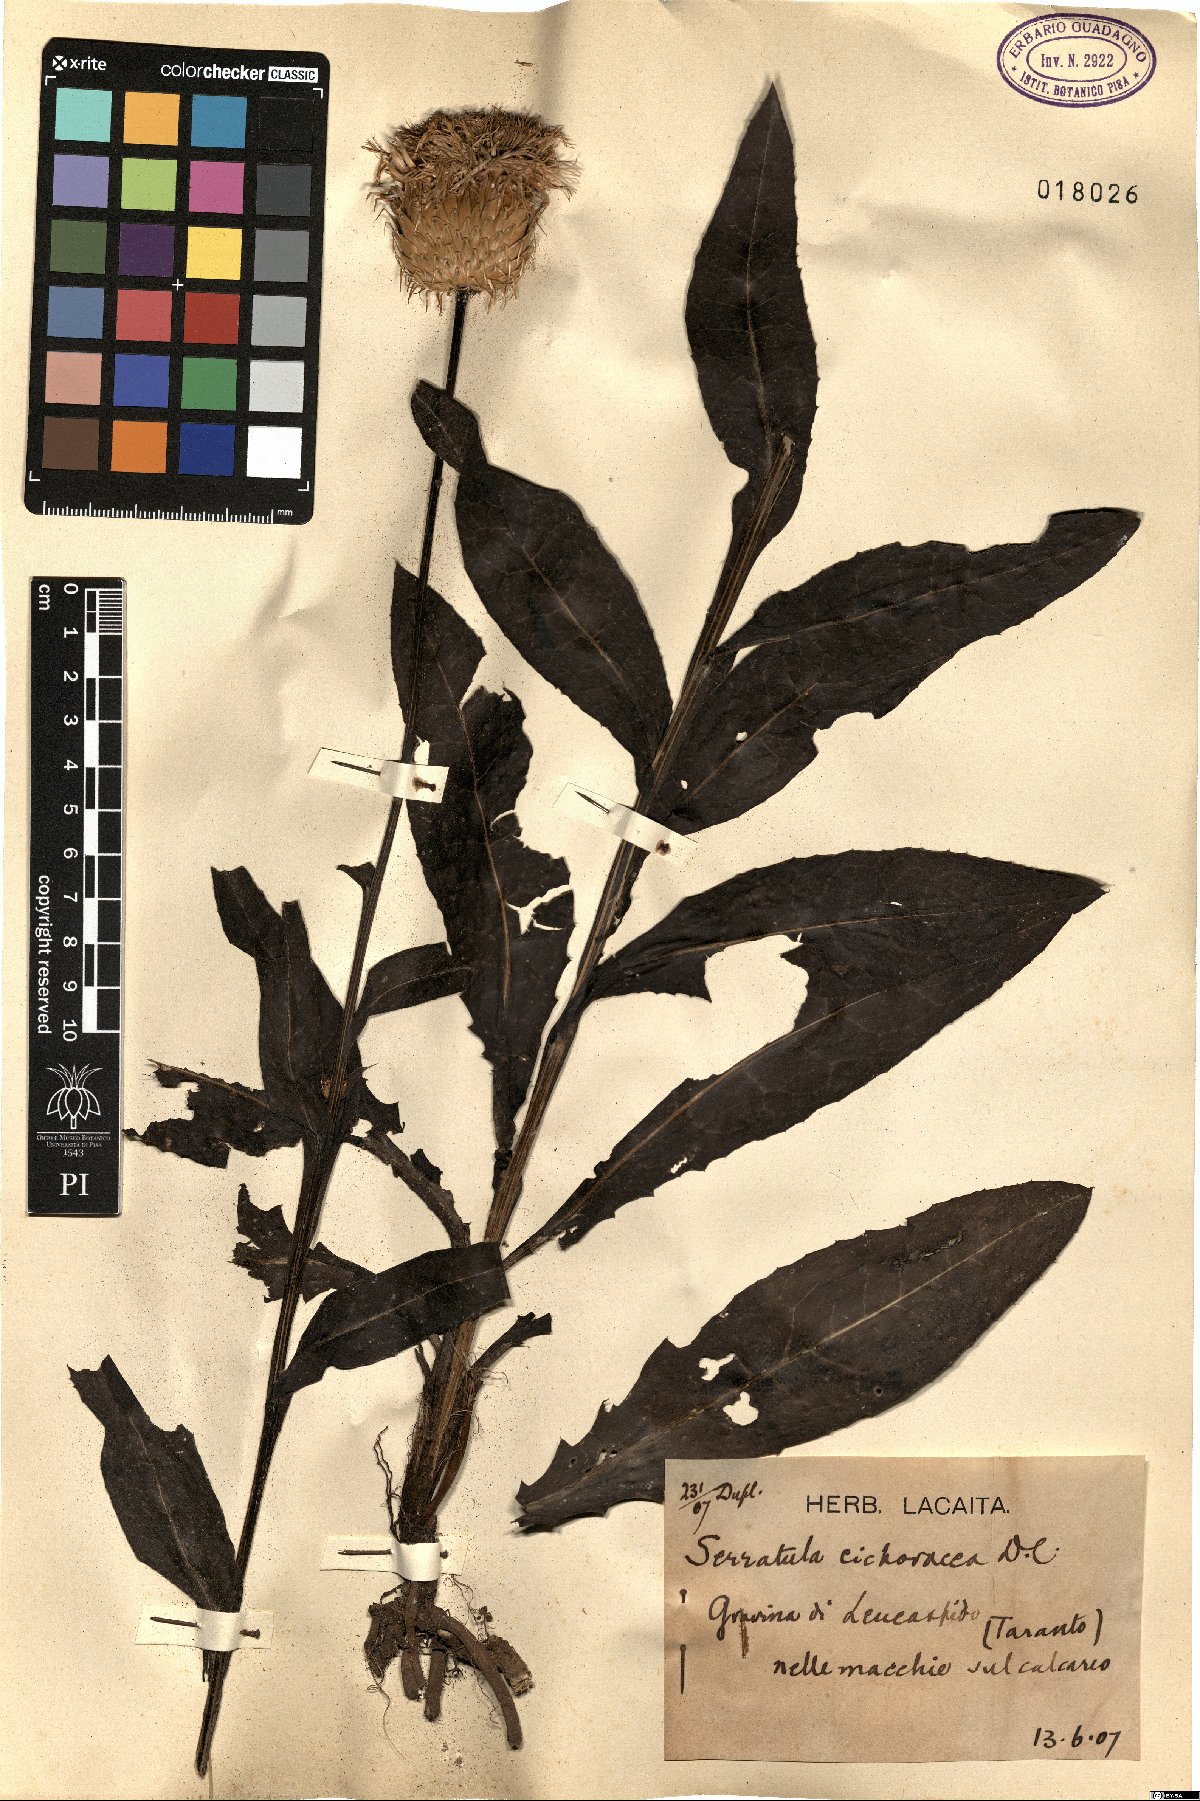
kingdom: Plantae
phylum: Tracheophyta
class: Magnoliopsida
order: Asterales
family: Asteraceae
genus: Klasea
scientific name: Klasea flavescens
